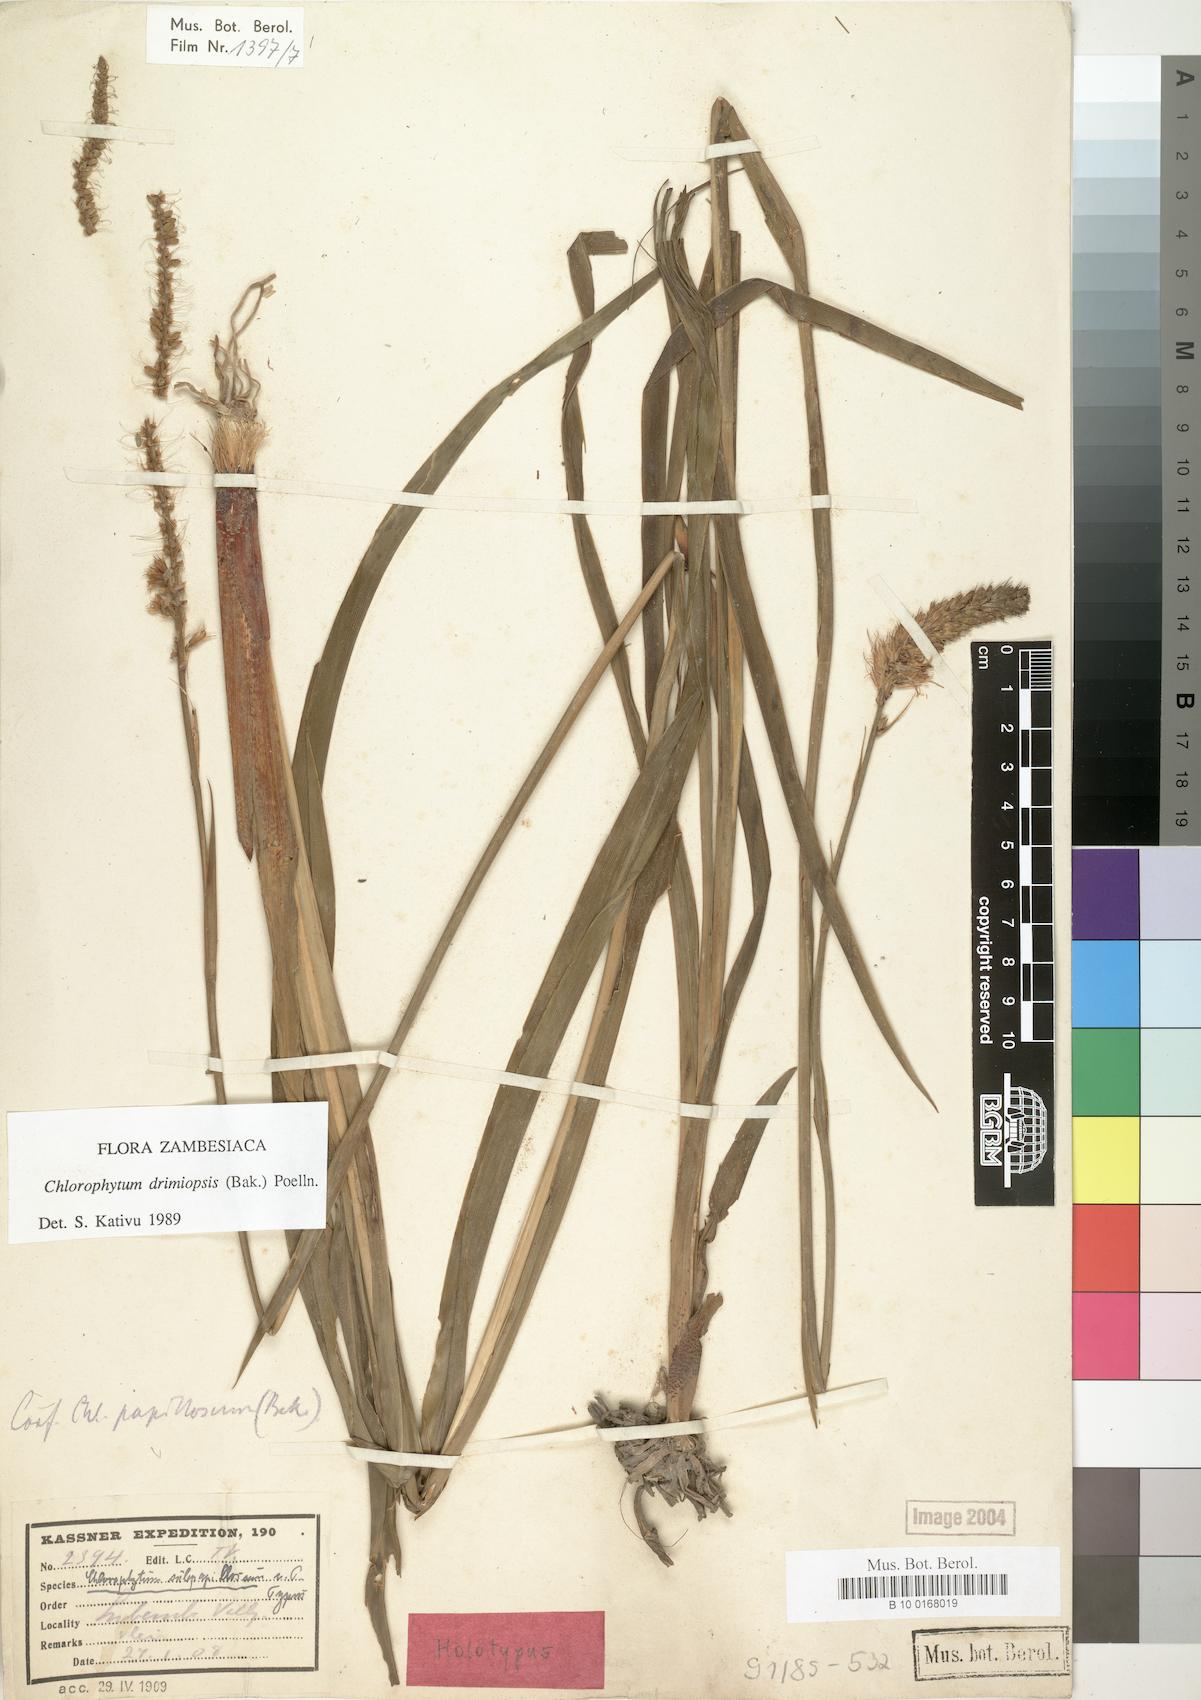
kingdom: Plantae
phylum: Tracheophyta
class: Liliopsida
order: Asparagales
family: Asparagaceae
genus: Chlorophytum
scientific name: Chlorophytum longifolium
